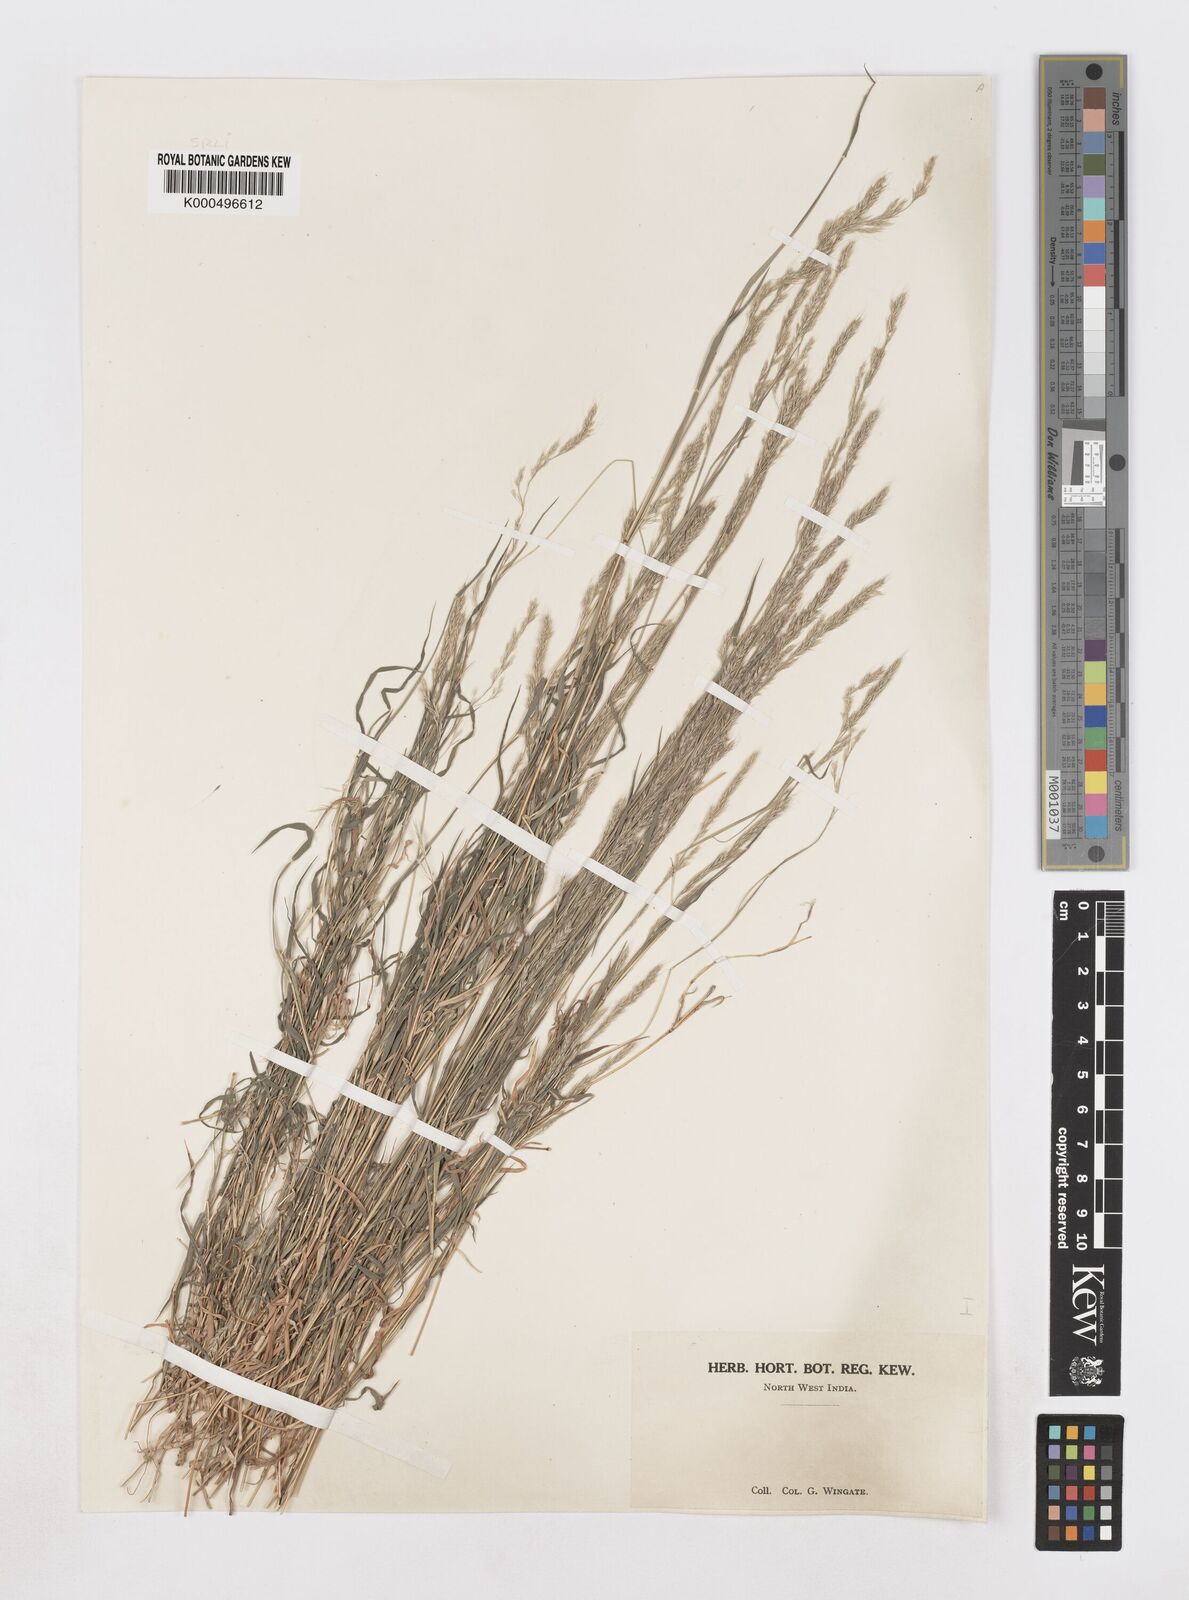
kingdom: Plantae
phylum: Tracheophyta
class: Liliopsida
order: Poales
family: Poaceae
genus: Muhlenbergia
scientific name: Muhlenbergia duthieana
